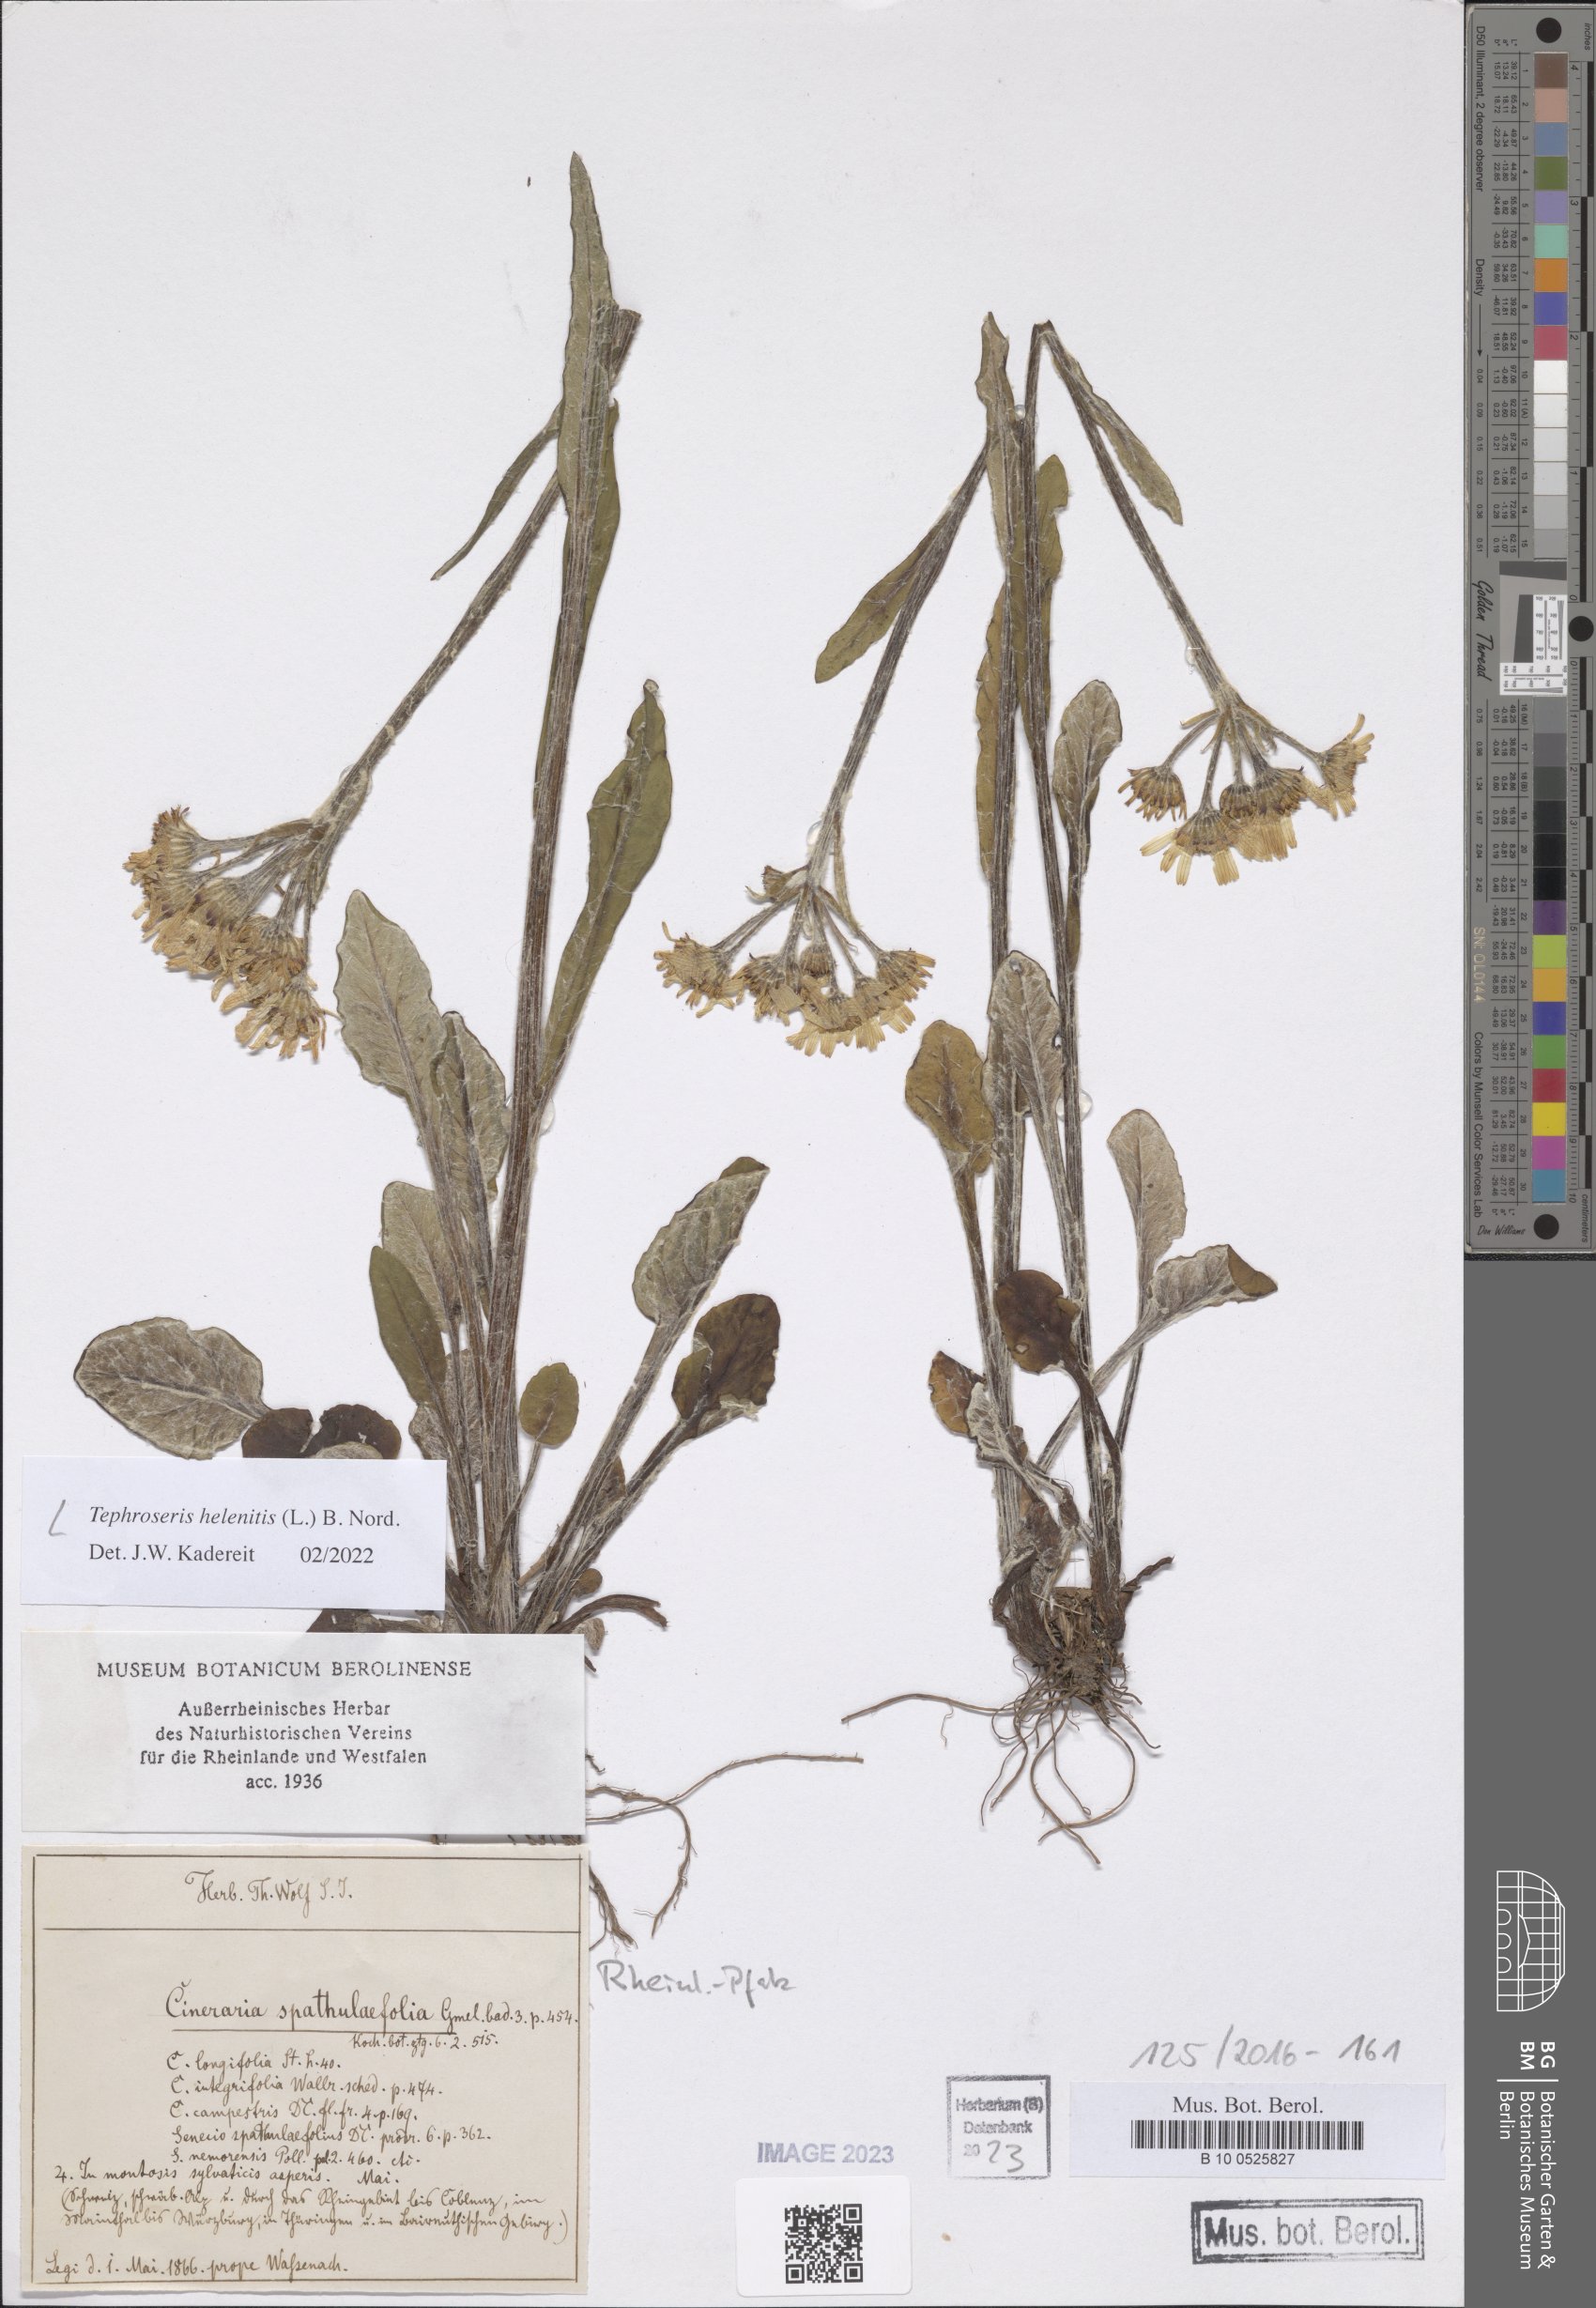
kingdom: Plantae
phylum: Tracheophyta
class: Magnoliopsida
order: Asterales
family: Asteraceae
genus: Tephroseris
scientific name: Tephroseris helenitis
